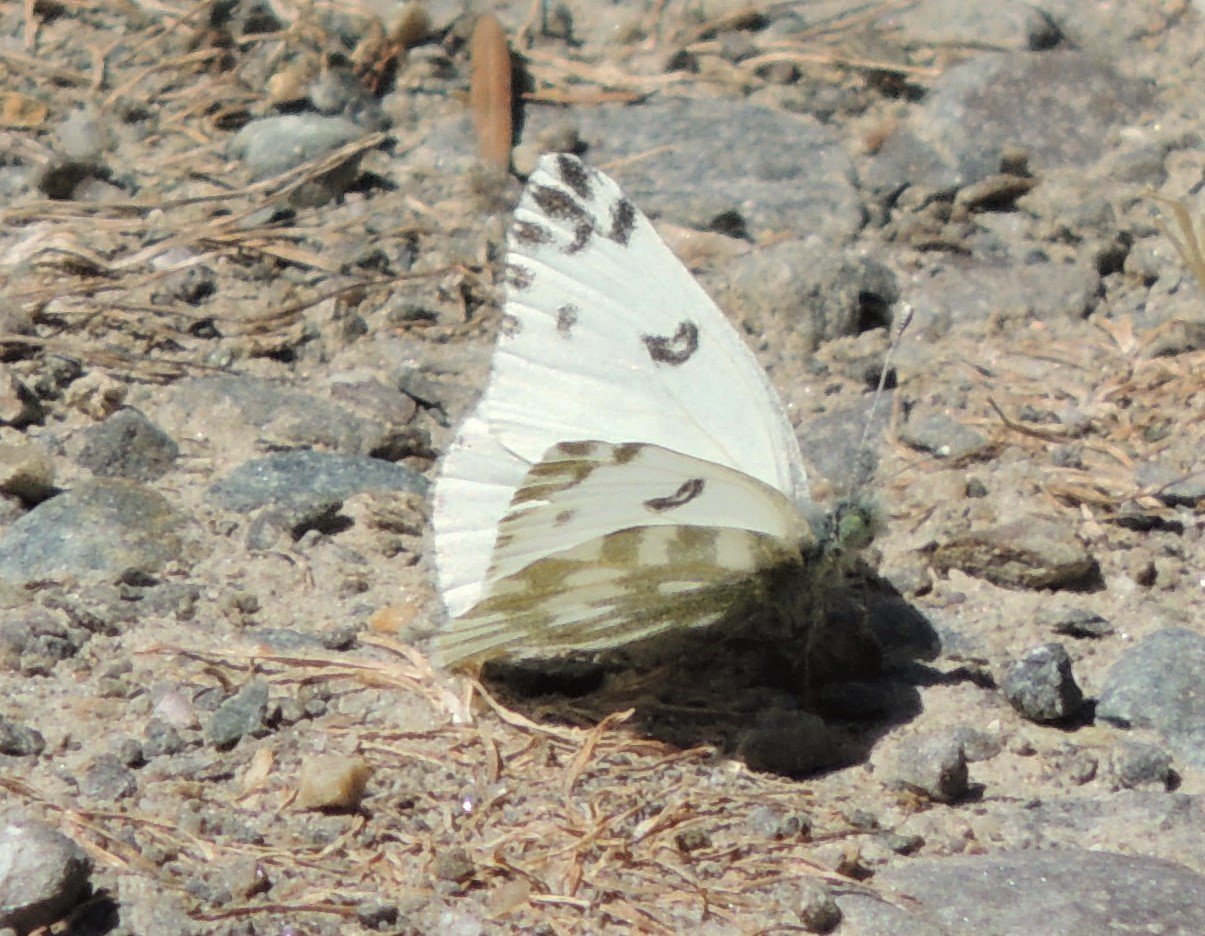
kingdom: Animalia
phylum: Arthropoda
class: Insecta
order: Lepidoptera
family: Pieridae
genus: Pontia
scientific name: Pontia beckerii
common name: Becker's White
